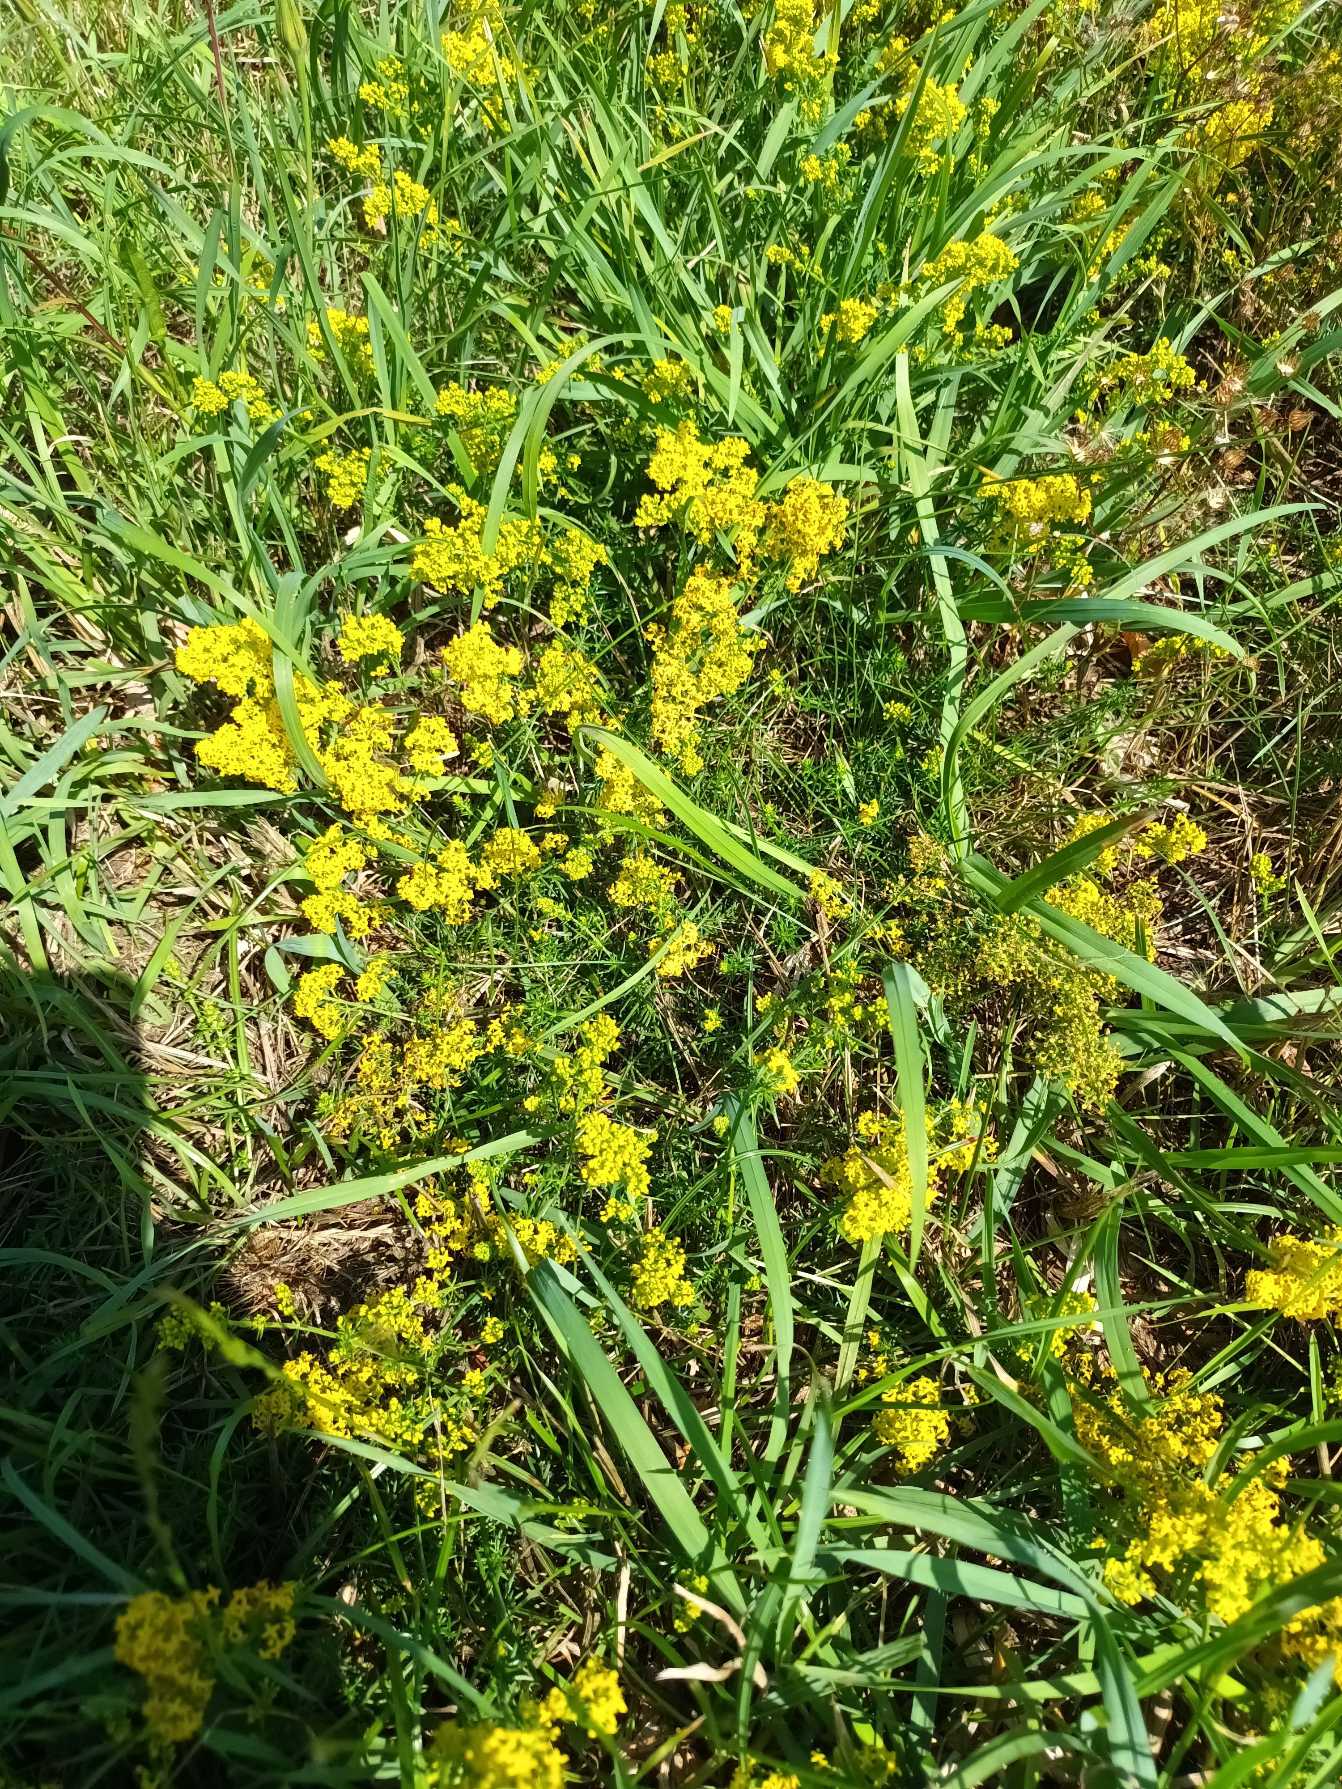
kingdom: Plantae
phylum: Tracheophyta
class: Magnoliopsida
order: Gentianales
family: Rubiaceae
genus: Galium
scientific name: Galium verum
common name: Gul snerre
